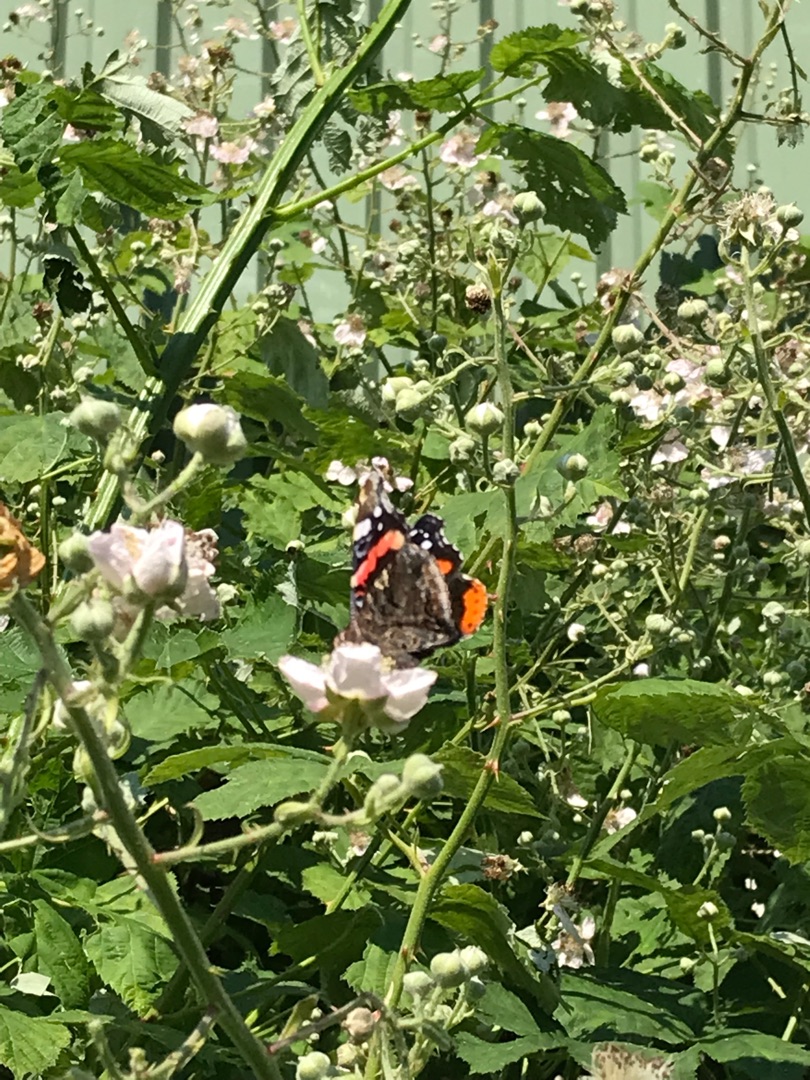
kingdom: Animalia
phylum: Arthropoda
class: Insecta
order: Lepidoptera
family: Nymphalidae
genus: Vanessa
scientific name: Vanessa atalanta
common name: Admiral
